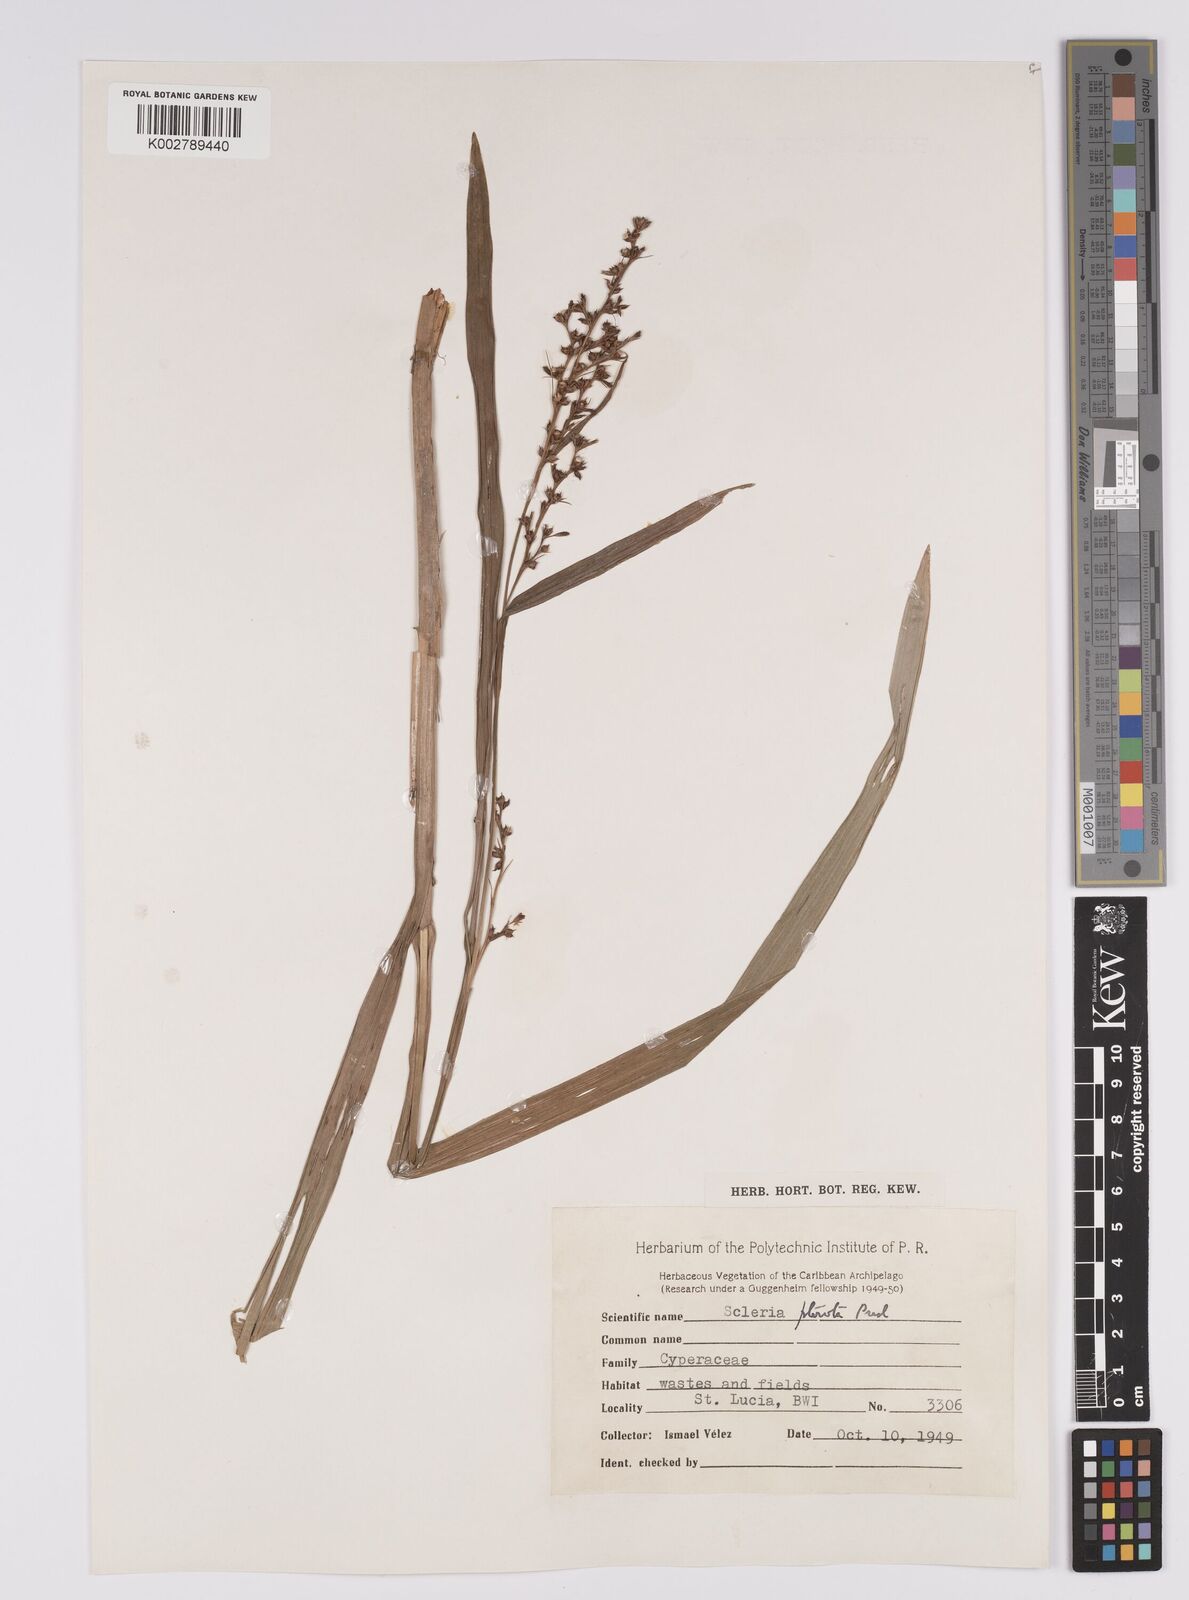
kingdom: Plantae
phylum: Tracheophyta
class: Liliopsida
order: Poales
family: Cyperaceae
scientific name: Cyperaceae
